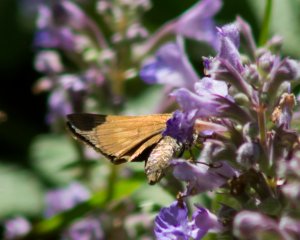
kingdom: Animalia
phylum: Arthropoda
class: Insecta
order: Lepidoptera
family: Hesperiidae
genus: Poanes
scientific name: Poanes viator
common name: Broad-winged Skipper
